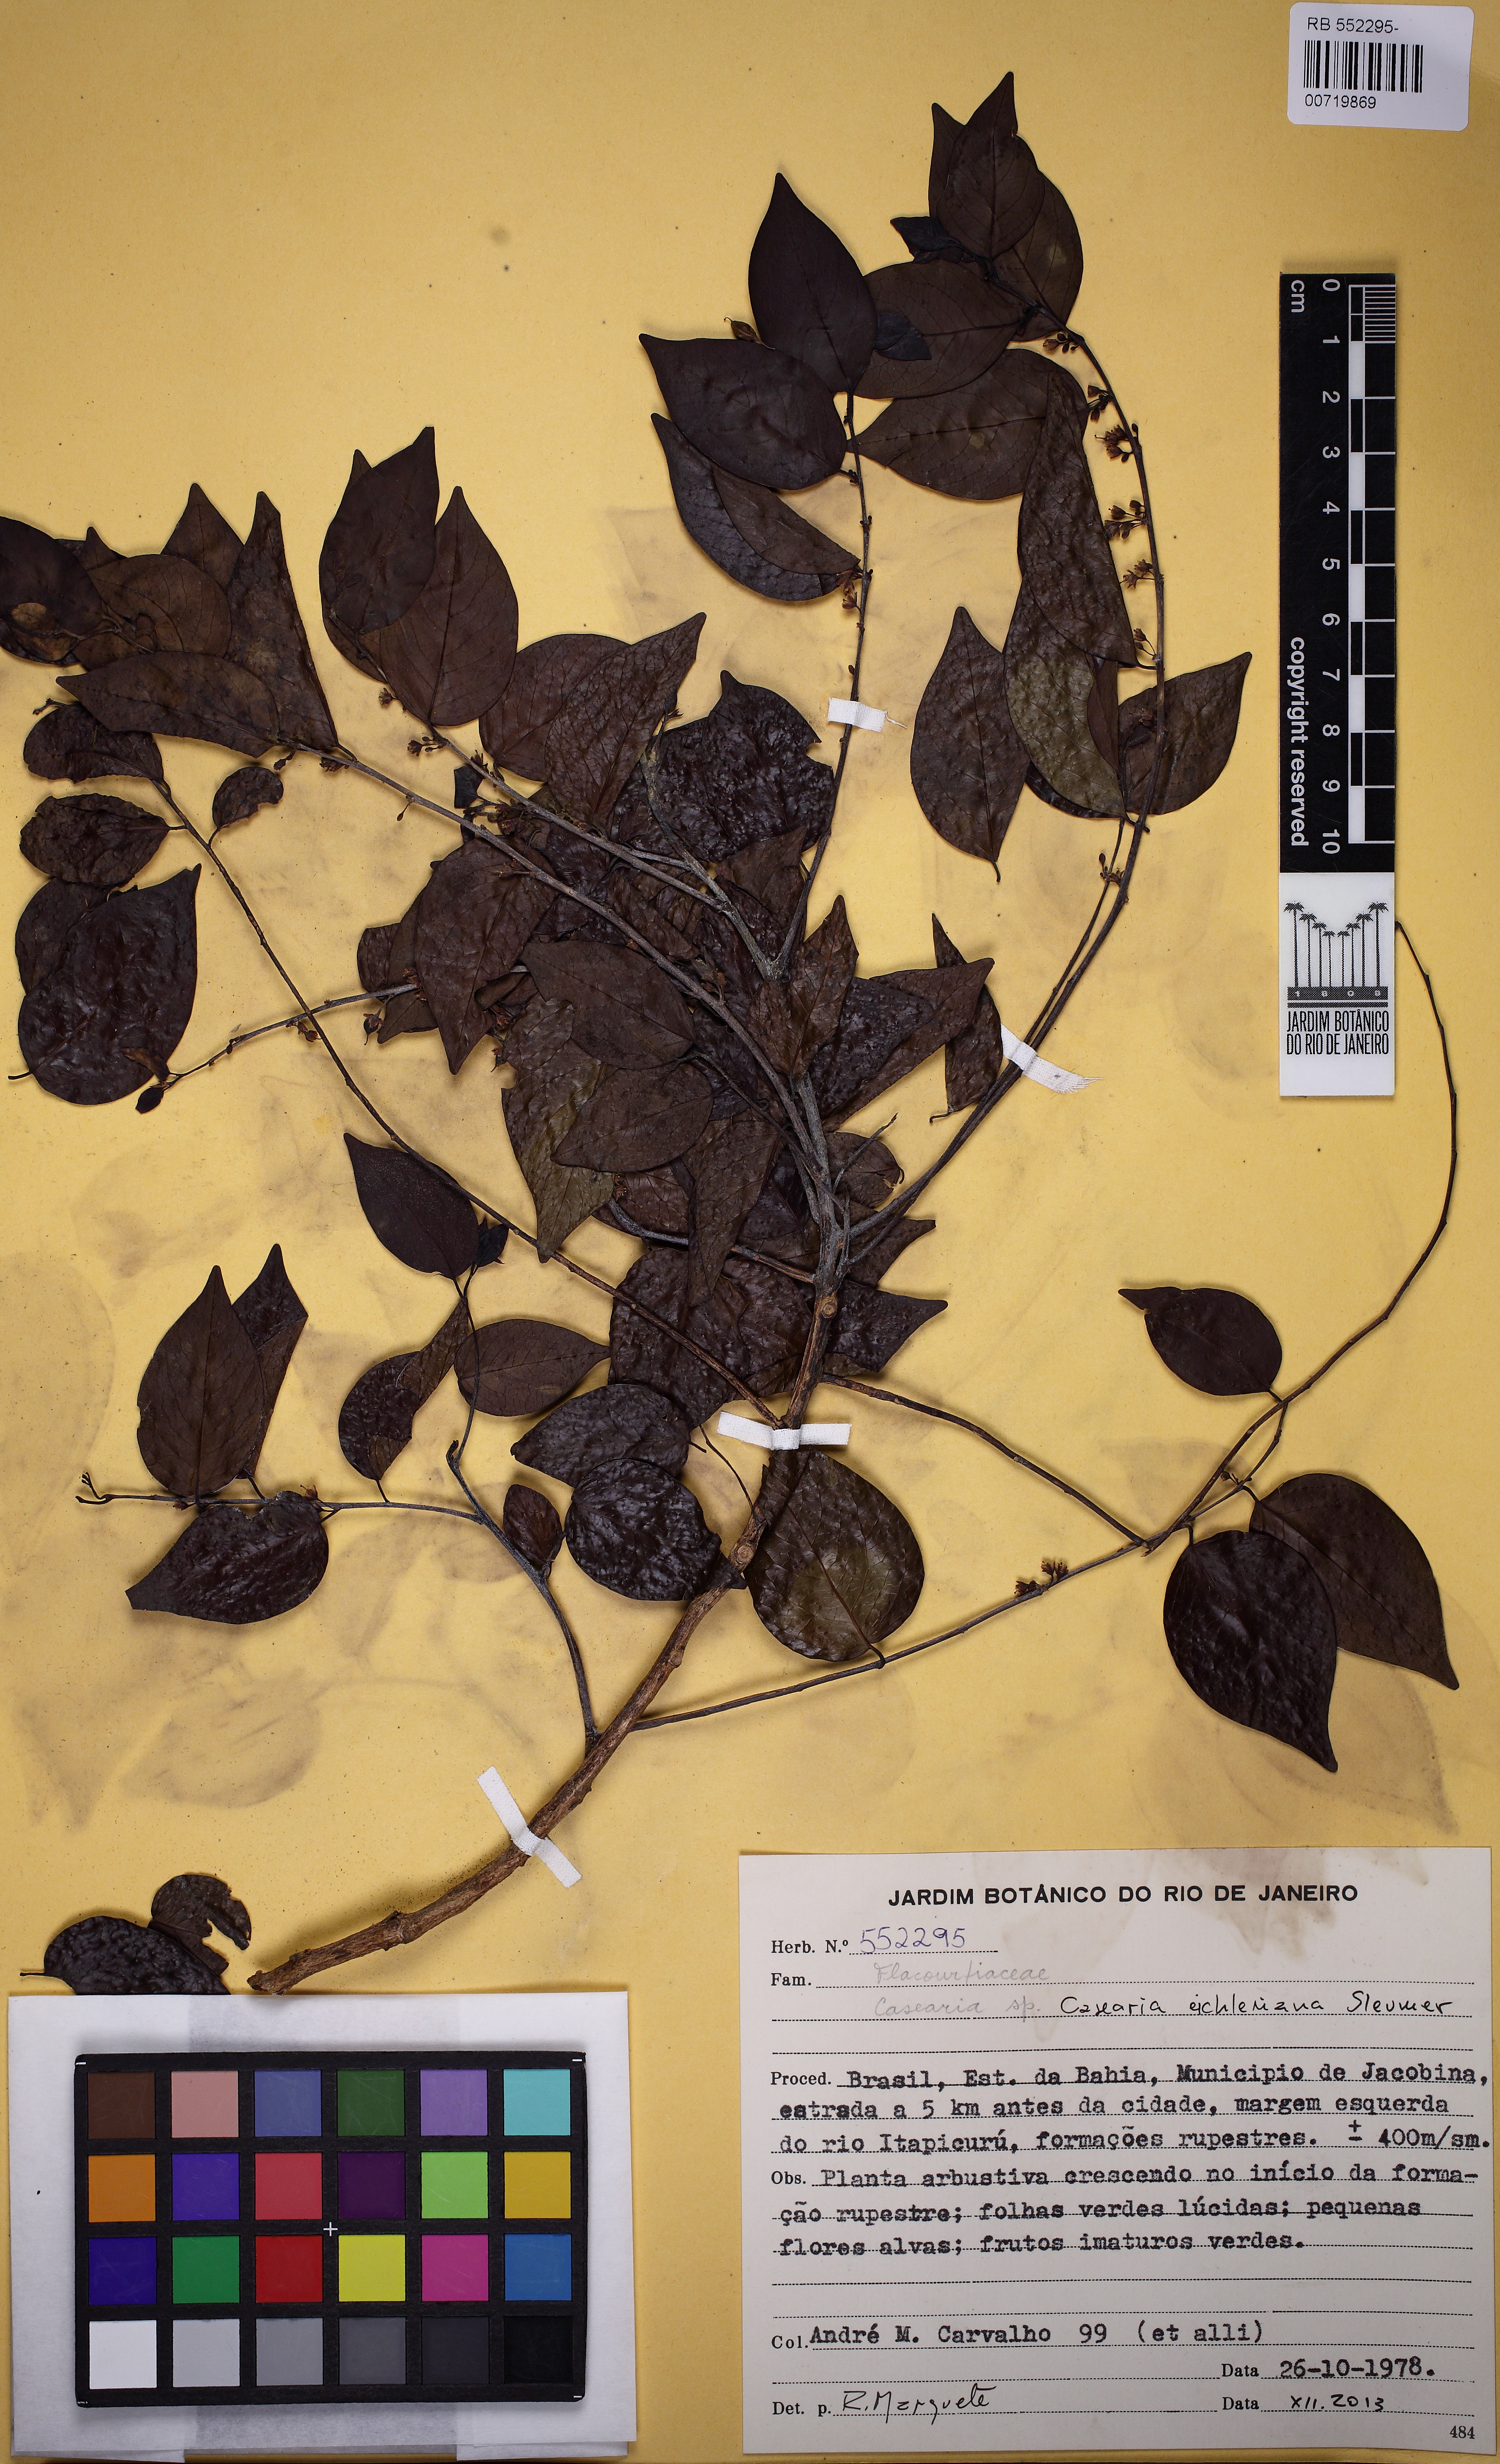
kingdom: Plantae
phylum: Tracheophyta
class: Magnoliopsida
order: Malpighiales
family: Salicaceae
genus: Casearia
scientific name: Casearia eichleriana
